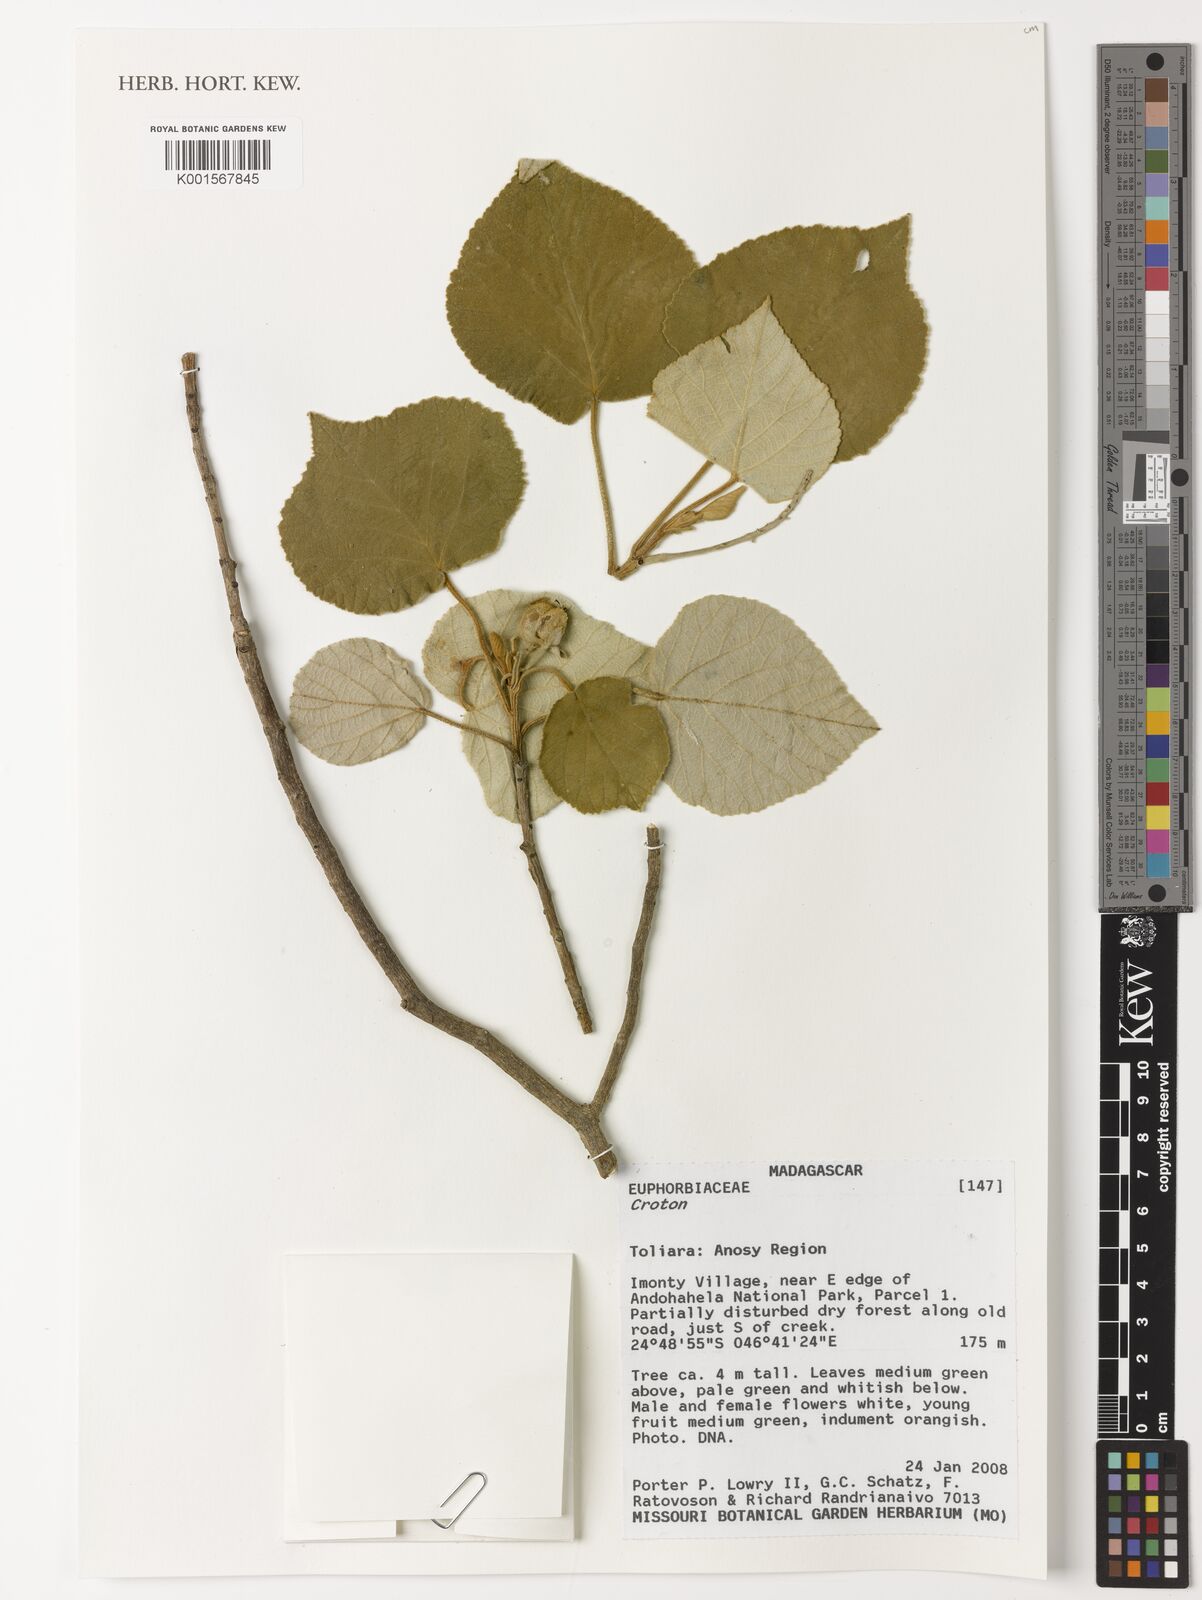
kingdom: Plantae
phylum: Tracheophyta
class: Magnoliopsida
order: Malpighiales
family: Euphorbiaceae
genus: Croton
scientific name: Croton
